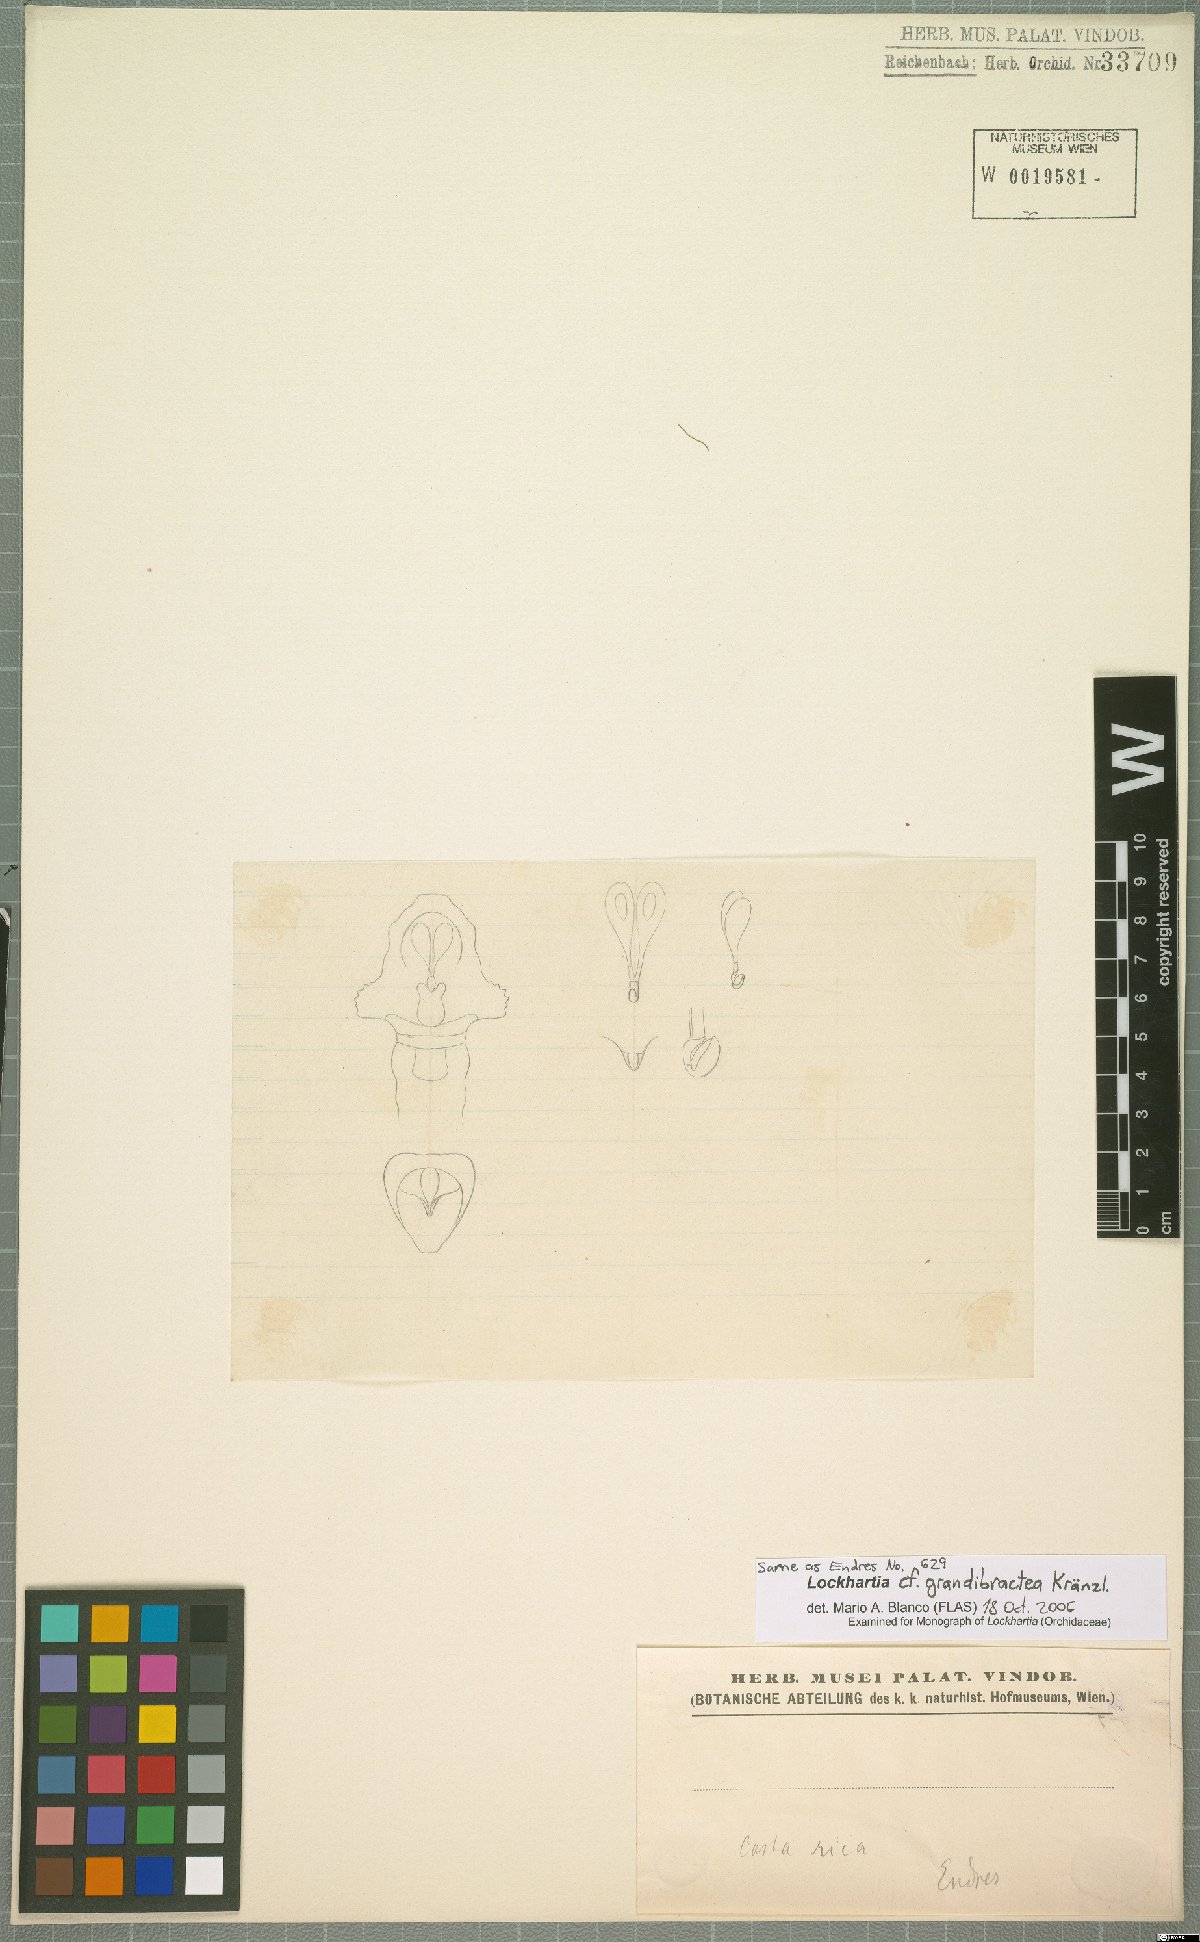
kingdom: Plantae
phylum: Tracheophyta
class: Liliopsida
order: Asparagales
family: Orchidaceae
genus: Lockhartia
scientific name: Lockhartia grandibractea
